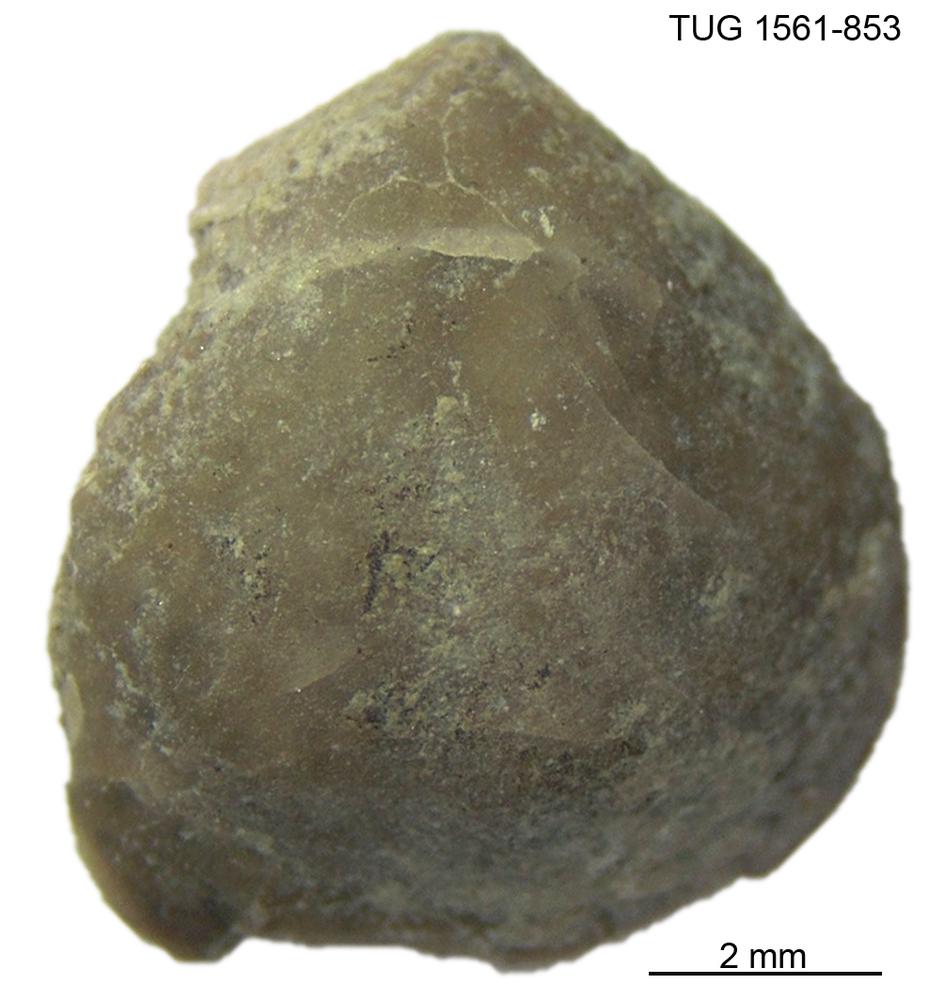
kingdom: Animalia
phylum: Brachiopoda
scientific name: Brachiopoda
